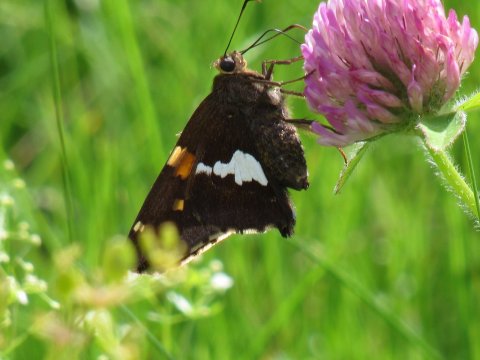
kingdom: Animalia
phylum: Arthropoda
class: Insecta
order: Lepidoptera
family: Hesperiidae
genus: Epargyreus
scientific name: Epargyreus clarus
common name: Silver-spotted Skipper
